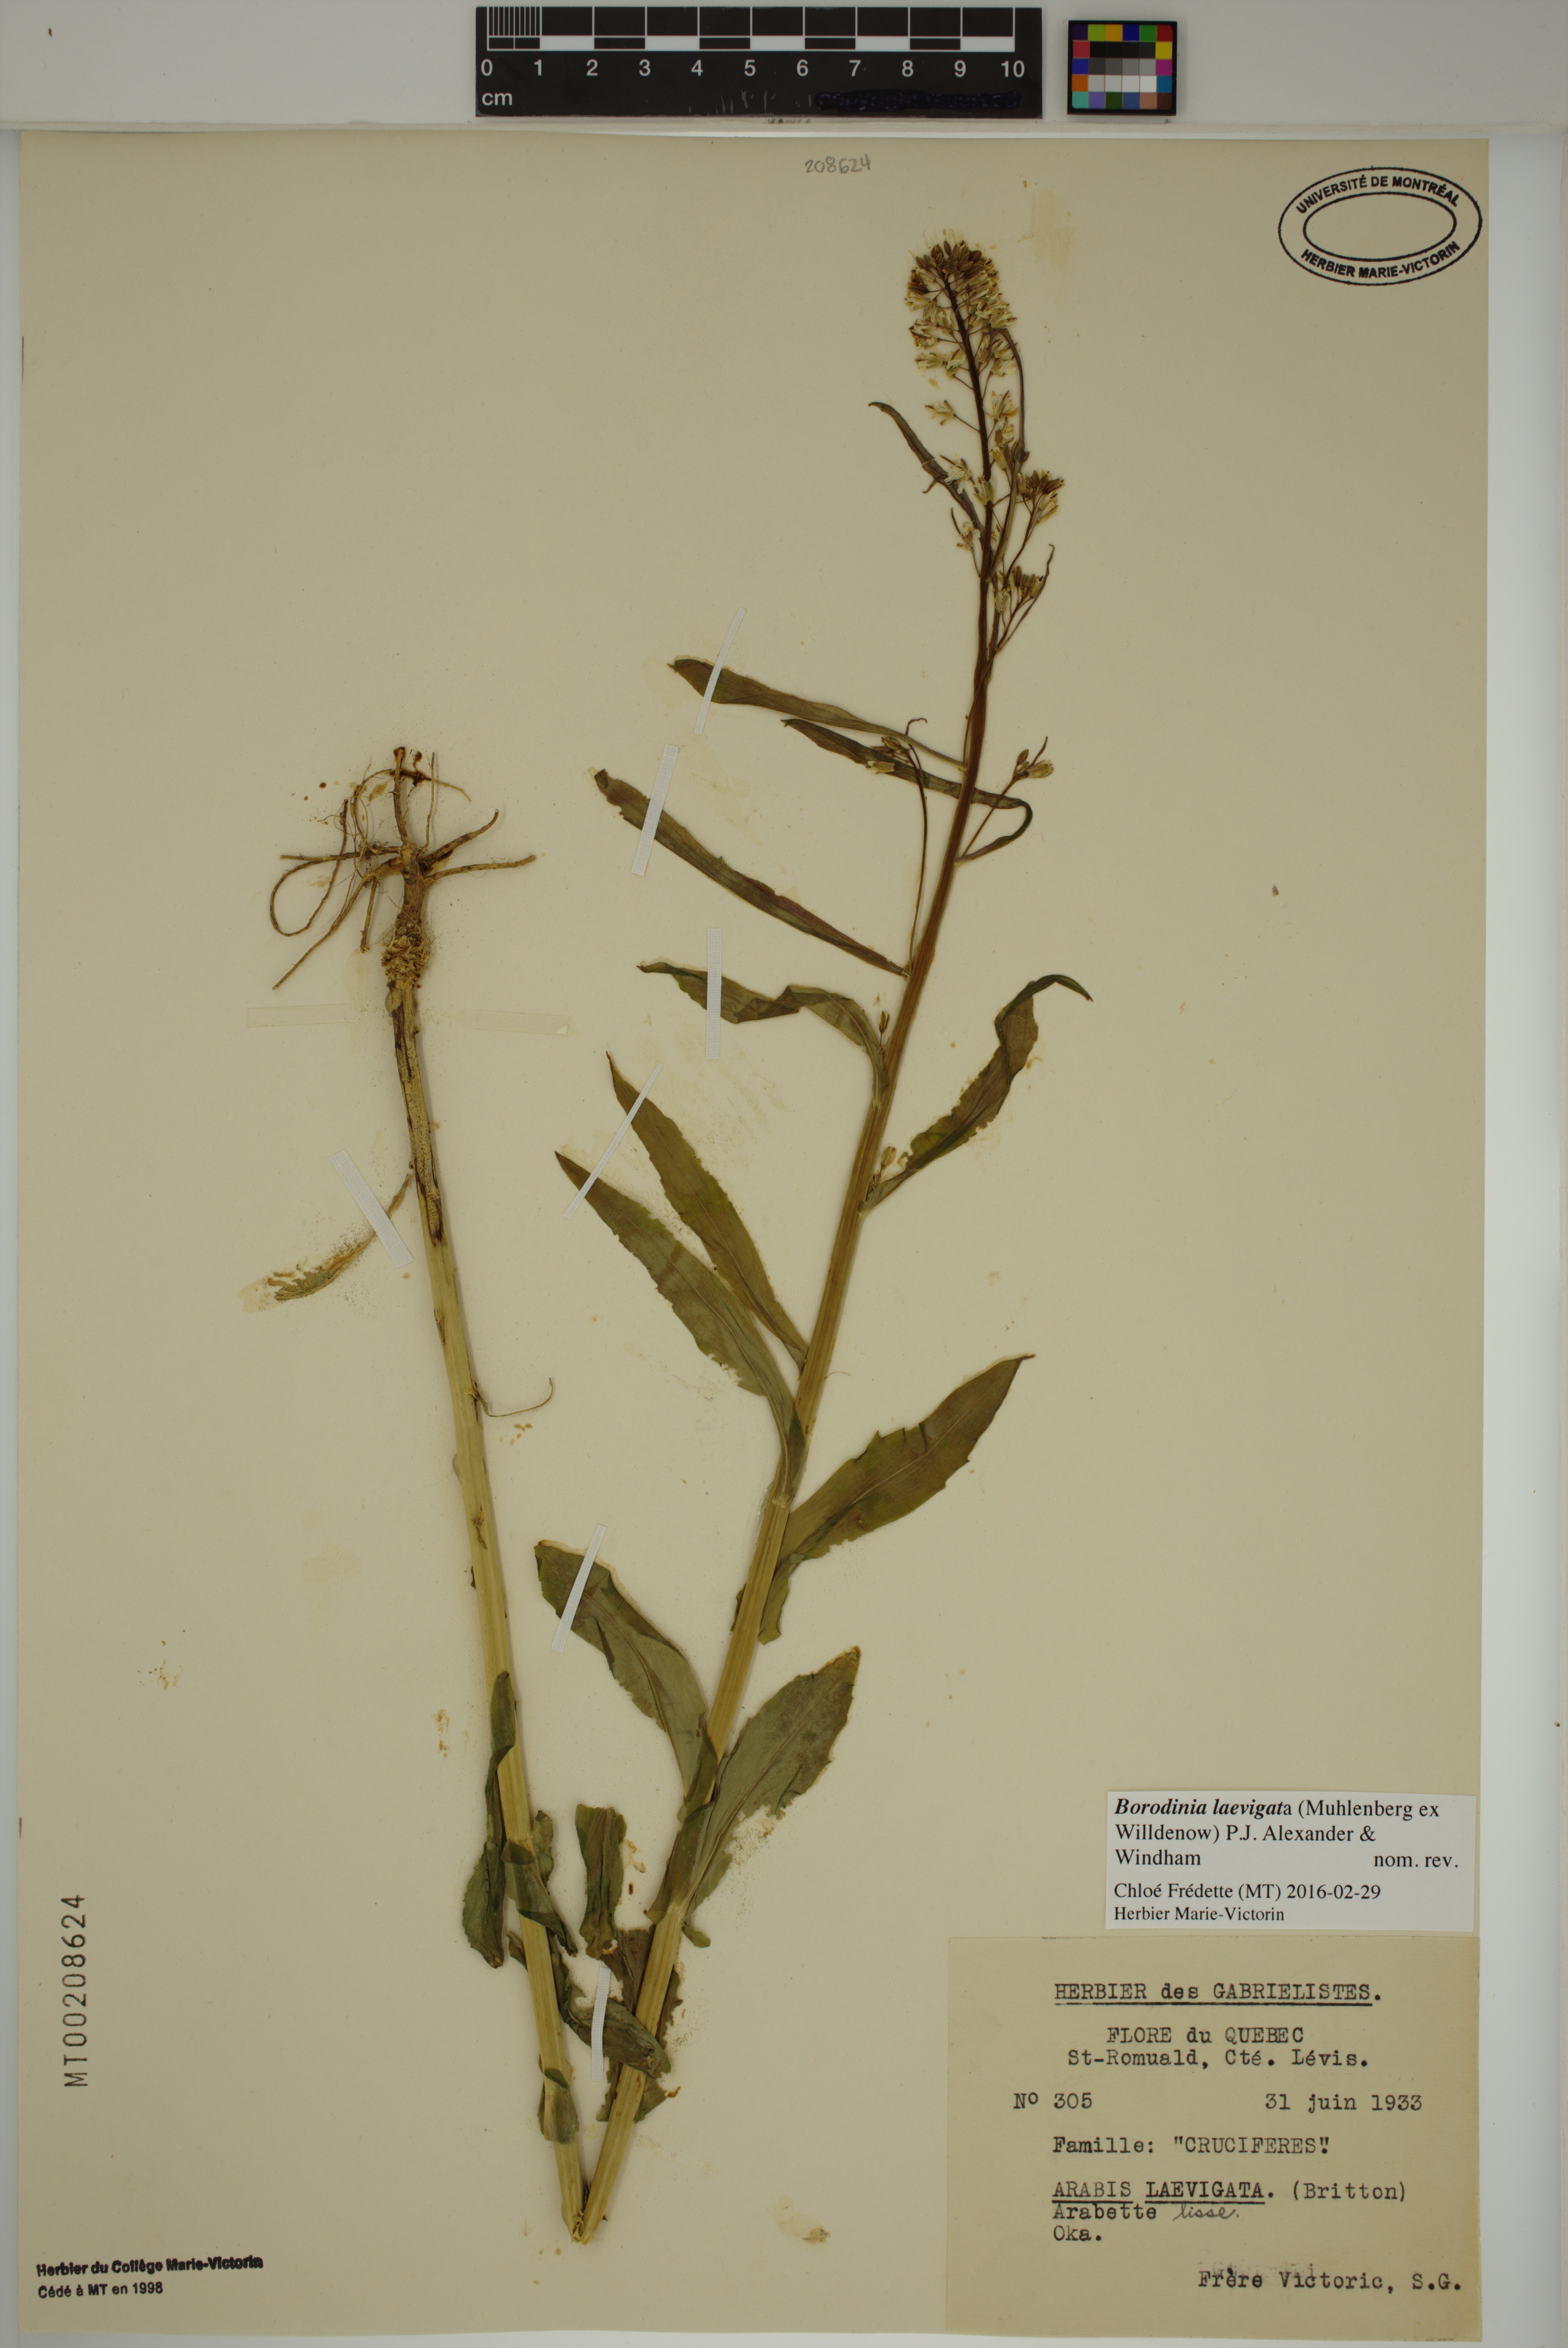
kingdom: Plantae
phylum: Tracheophyta
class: Magnoliopsida
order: Brassicales
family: Brassicaceae
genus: Borodinia
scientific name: Borodinia laevigata
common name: Smooth rockcress
